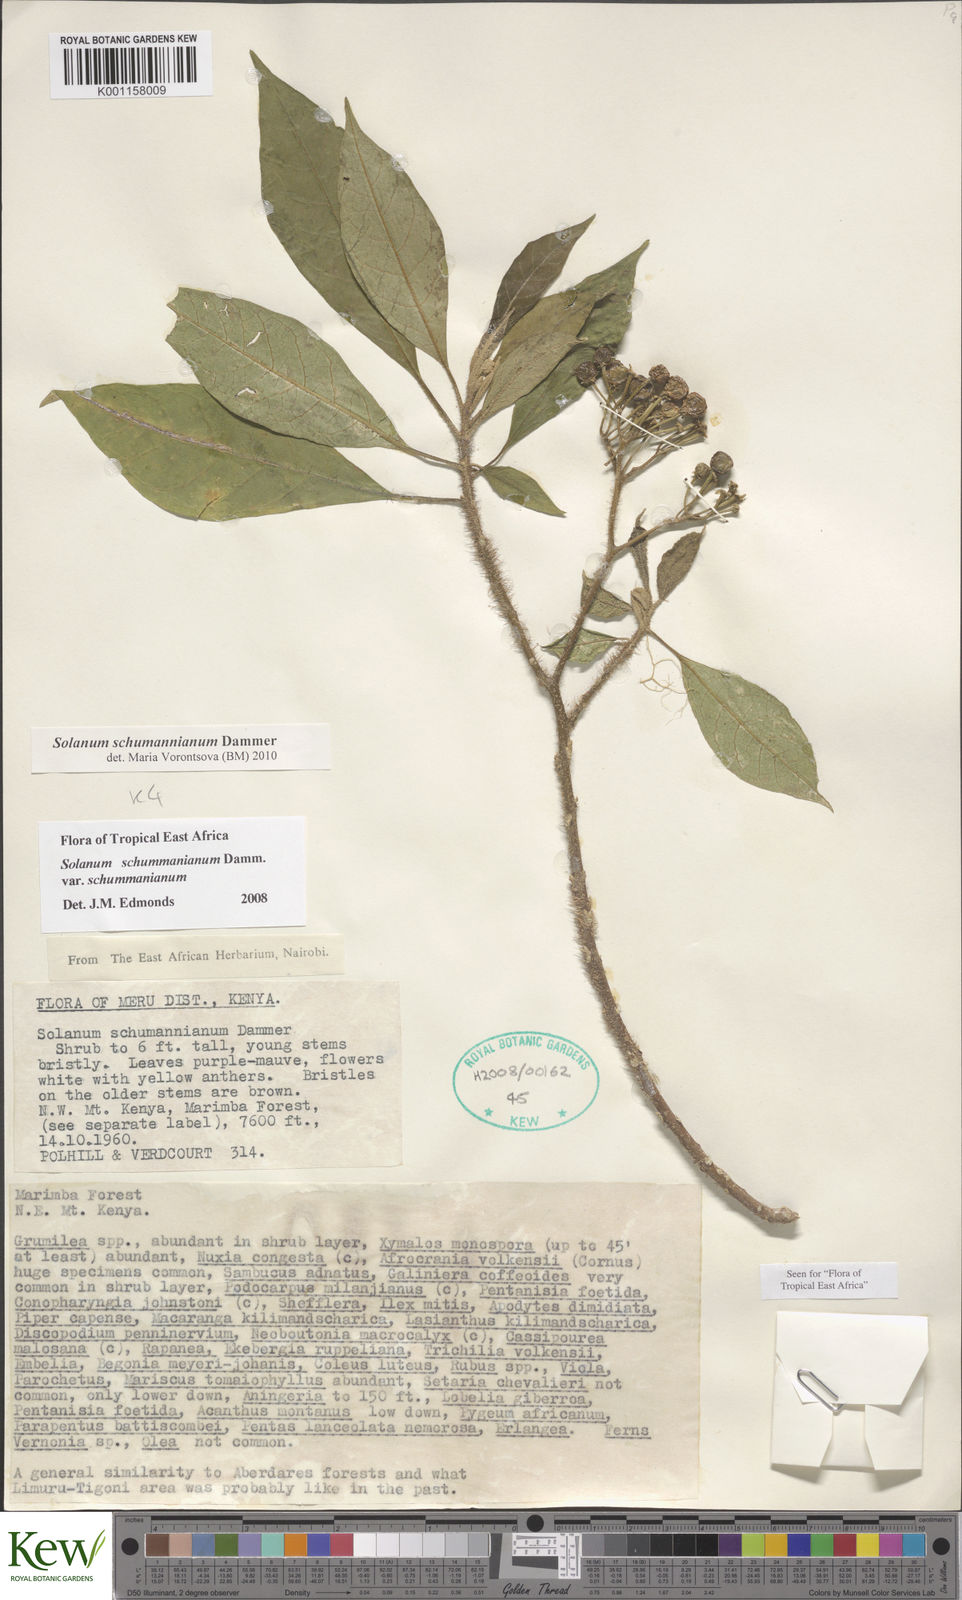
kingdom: Plantae
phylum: Tracheophyta
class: Magnoliopsida
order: Solanales
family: Solanaceae
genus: Solanum
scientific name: Solanum schumannianum
